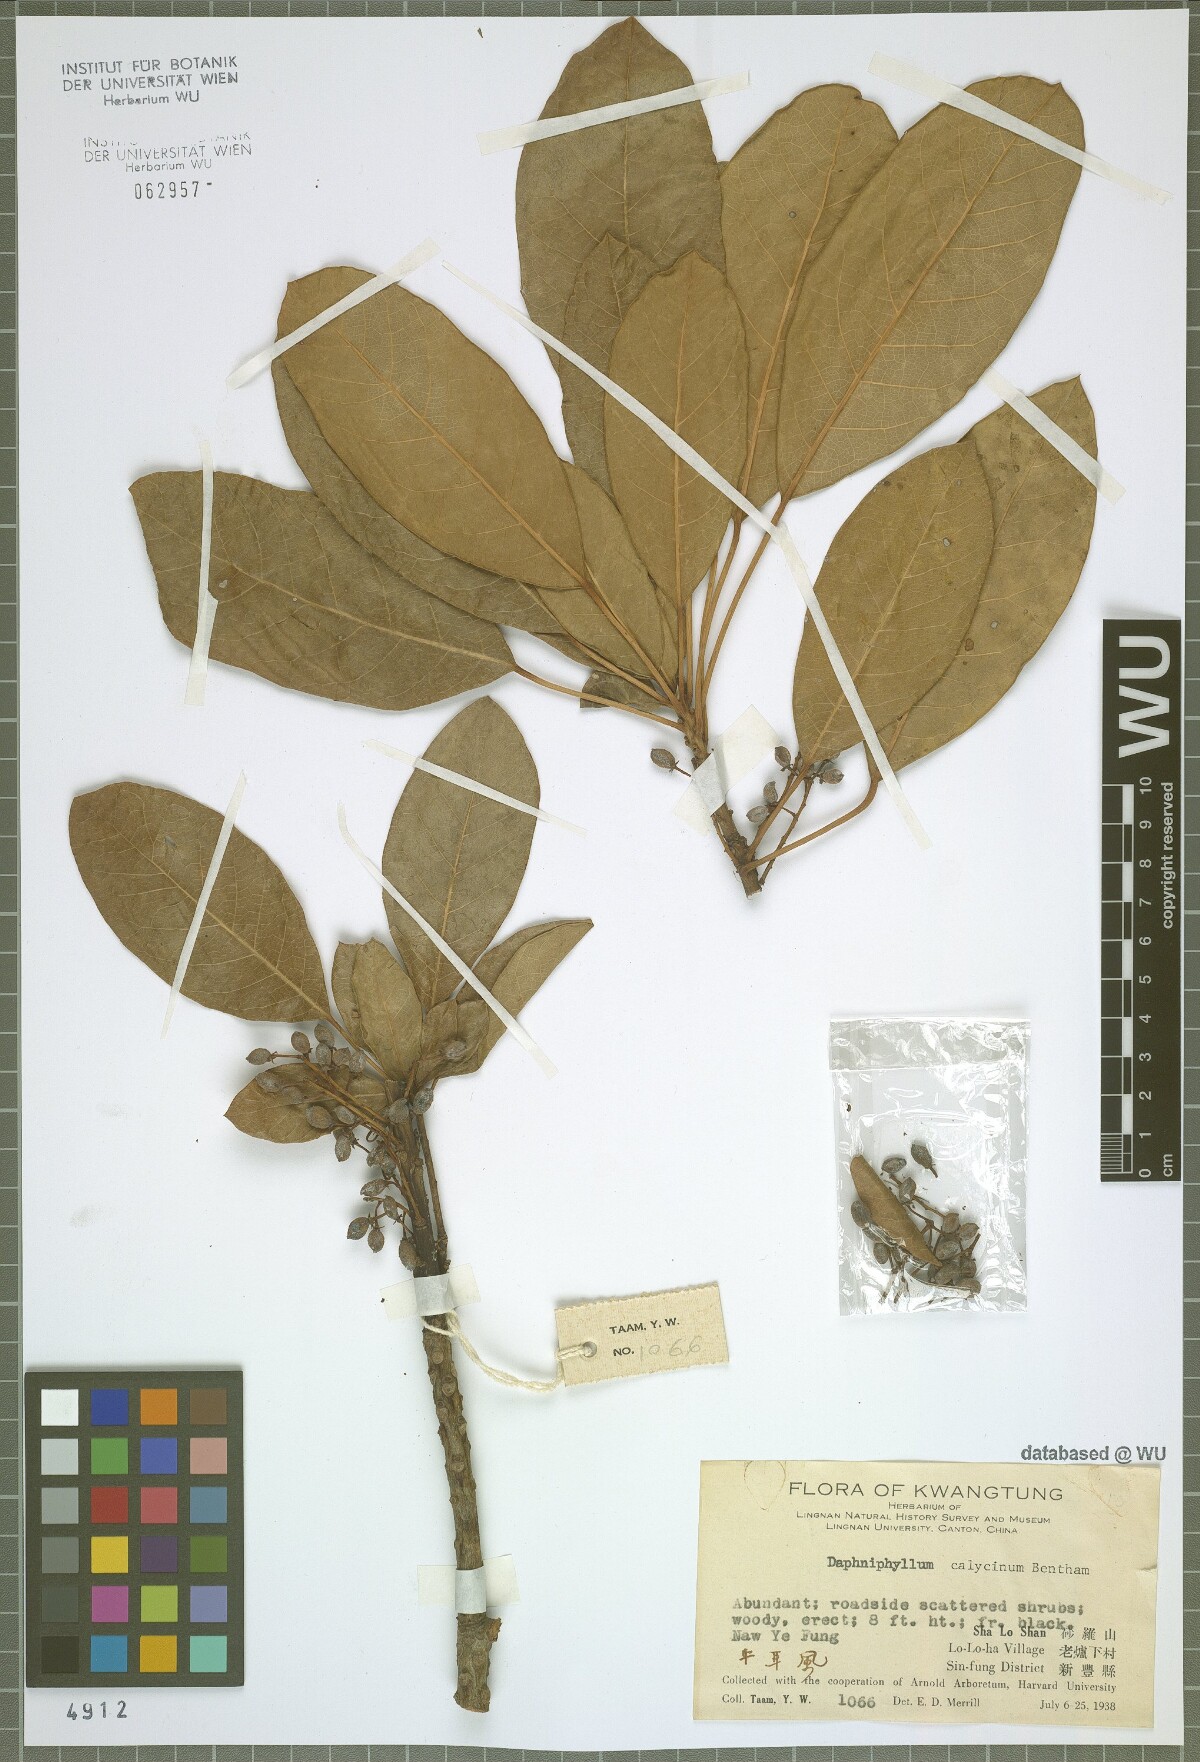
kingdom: Plantae
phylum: Tracheophyta
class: Magnoliopsida
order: Saxifragales
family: Daphniphyllaceae
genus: Daphniphyllum
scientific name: Daphniphyllum calycinum
